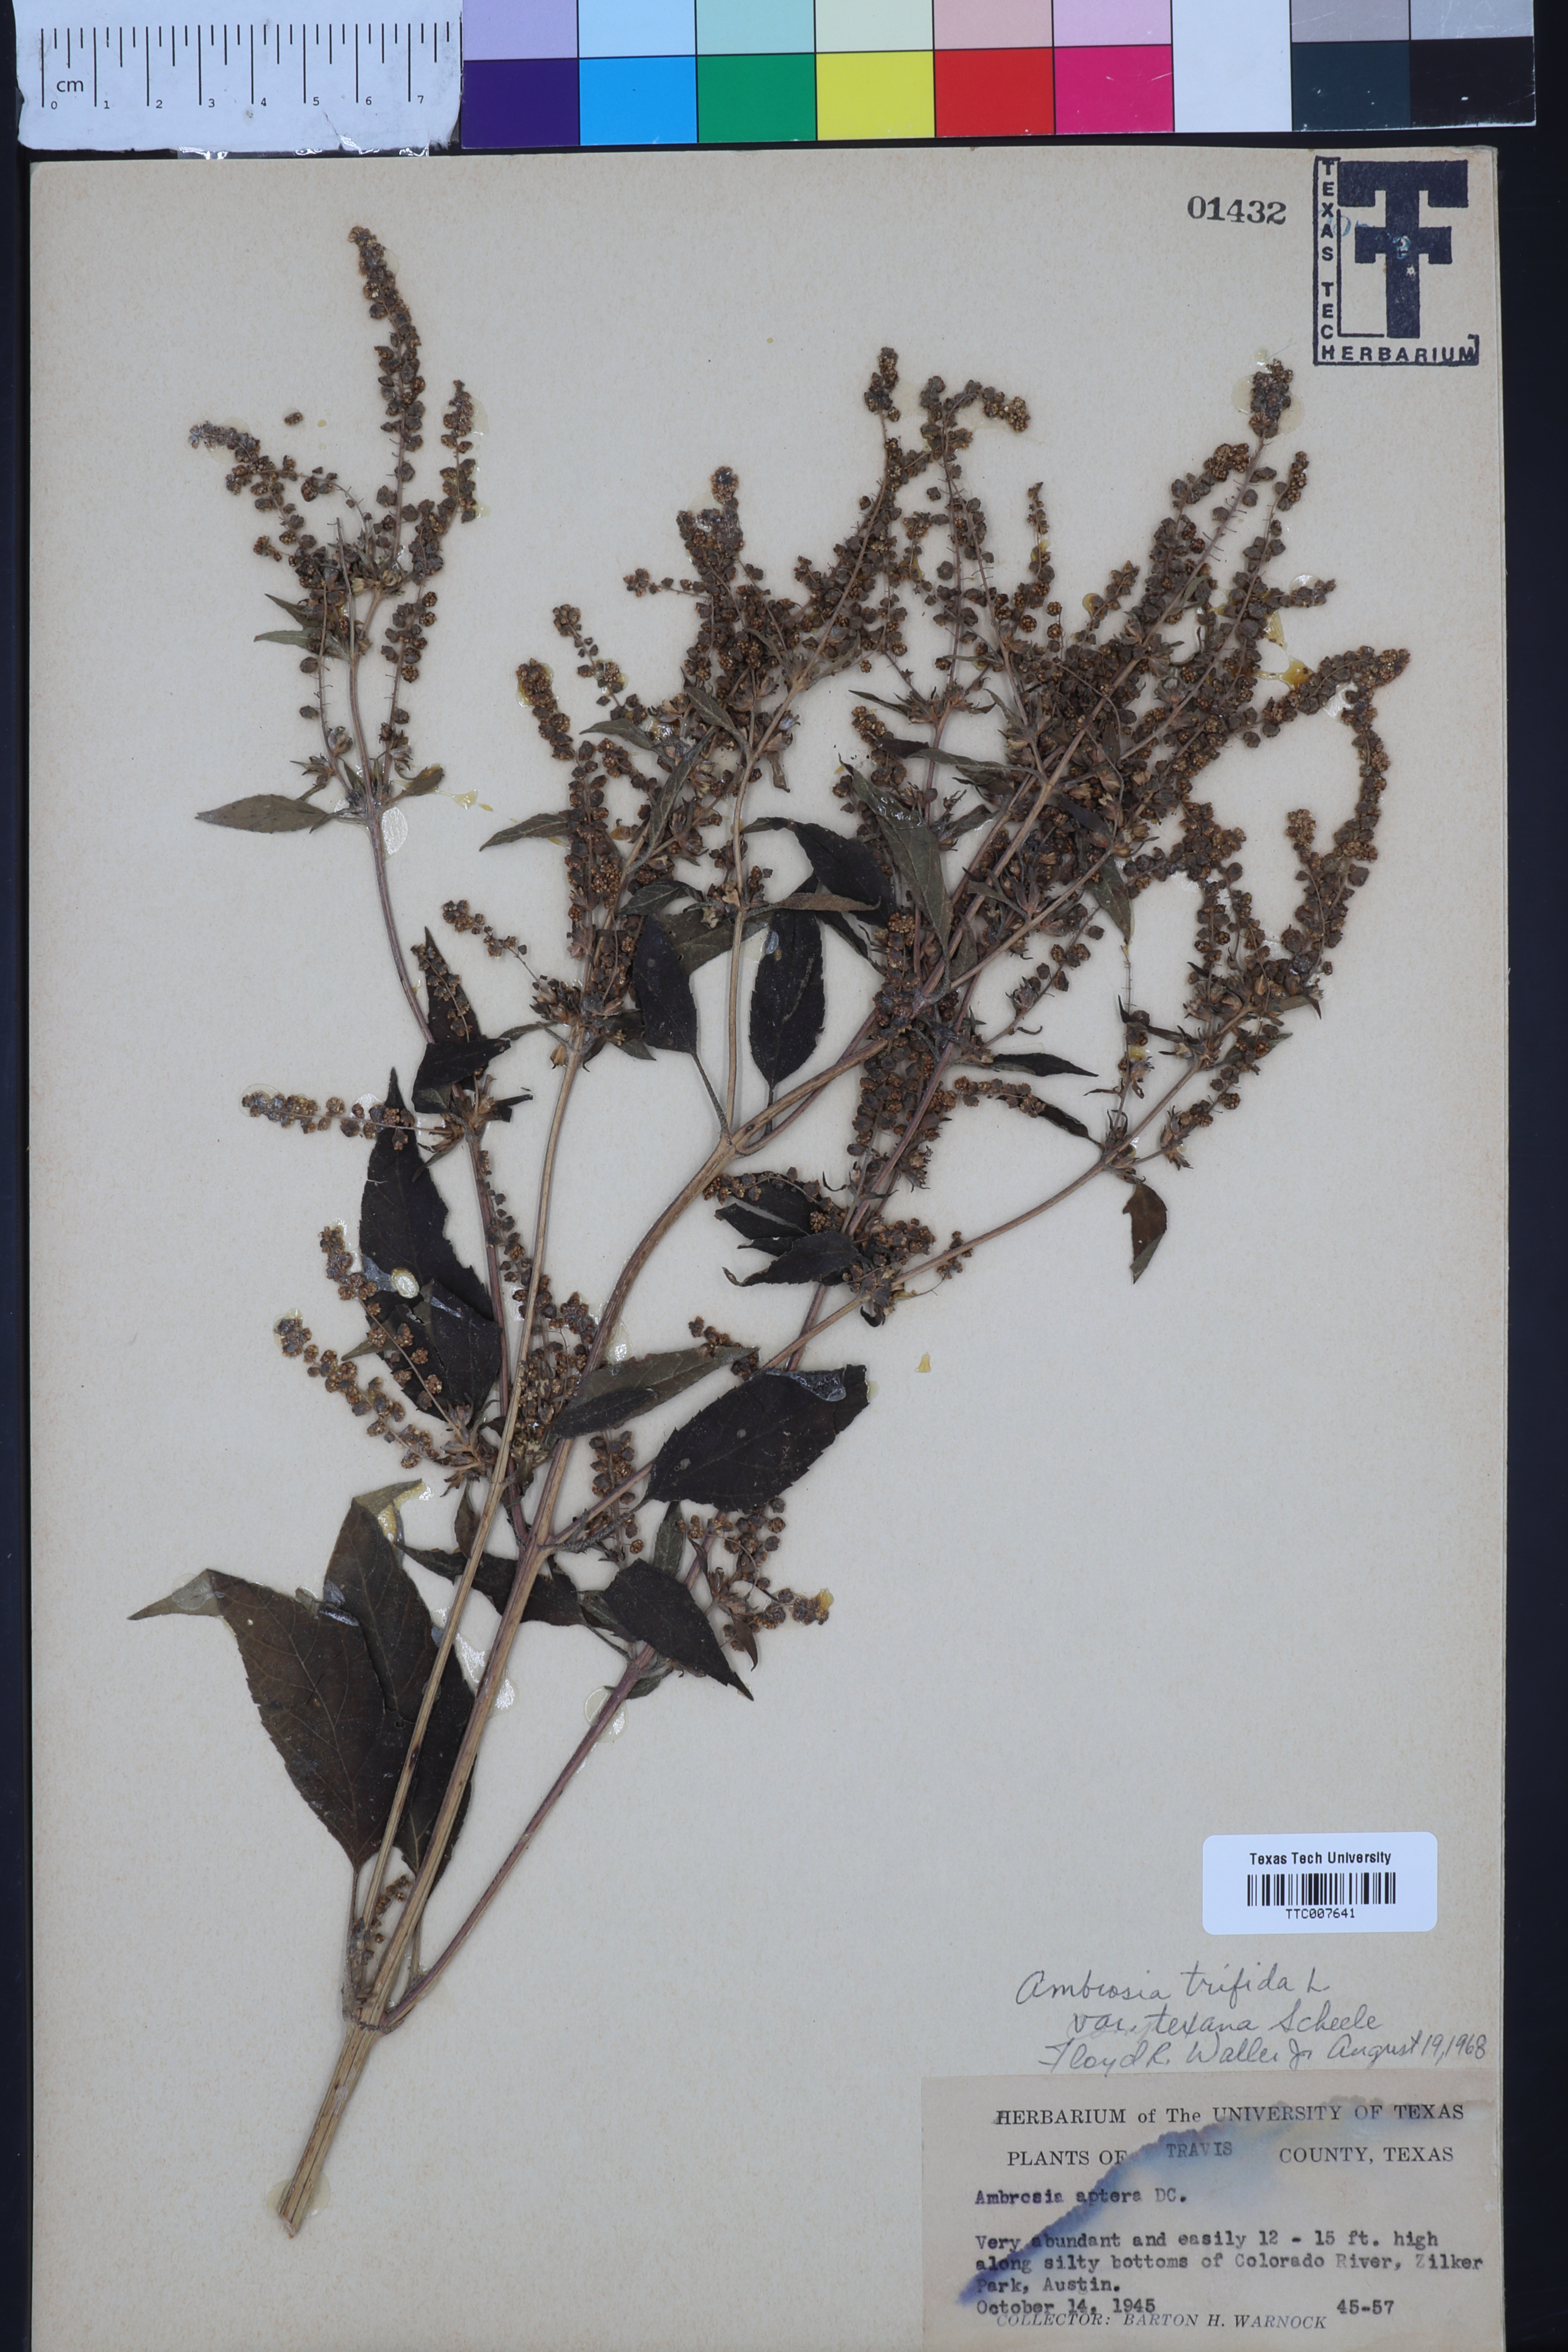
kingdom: Plantae
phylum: Tracheophyta
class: Magnoliopsida
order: Asterales
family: Asteraceae
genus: Ambrosia
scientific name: Ambrosia trifida
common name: Giant ragweed
